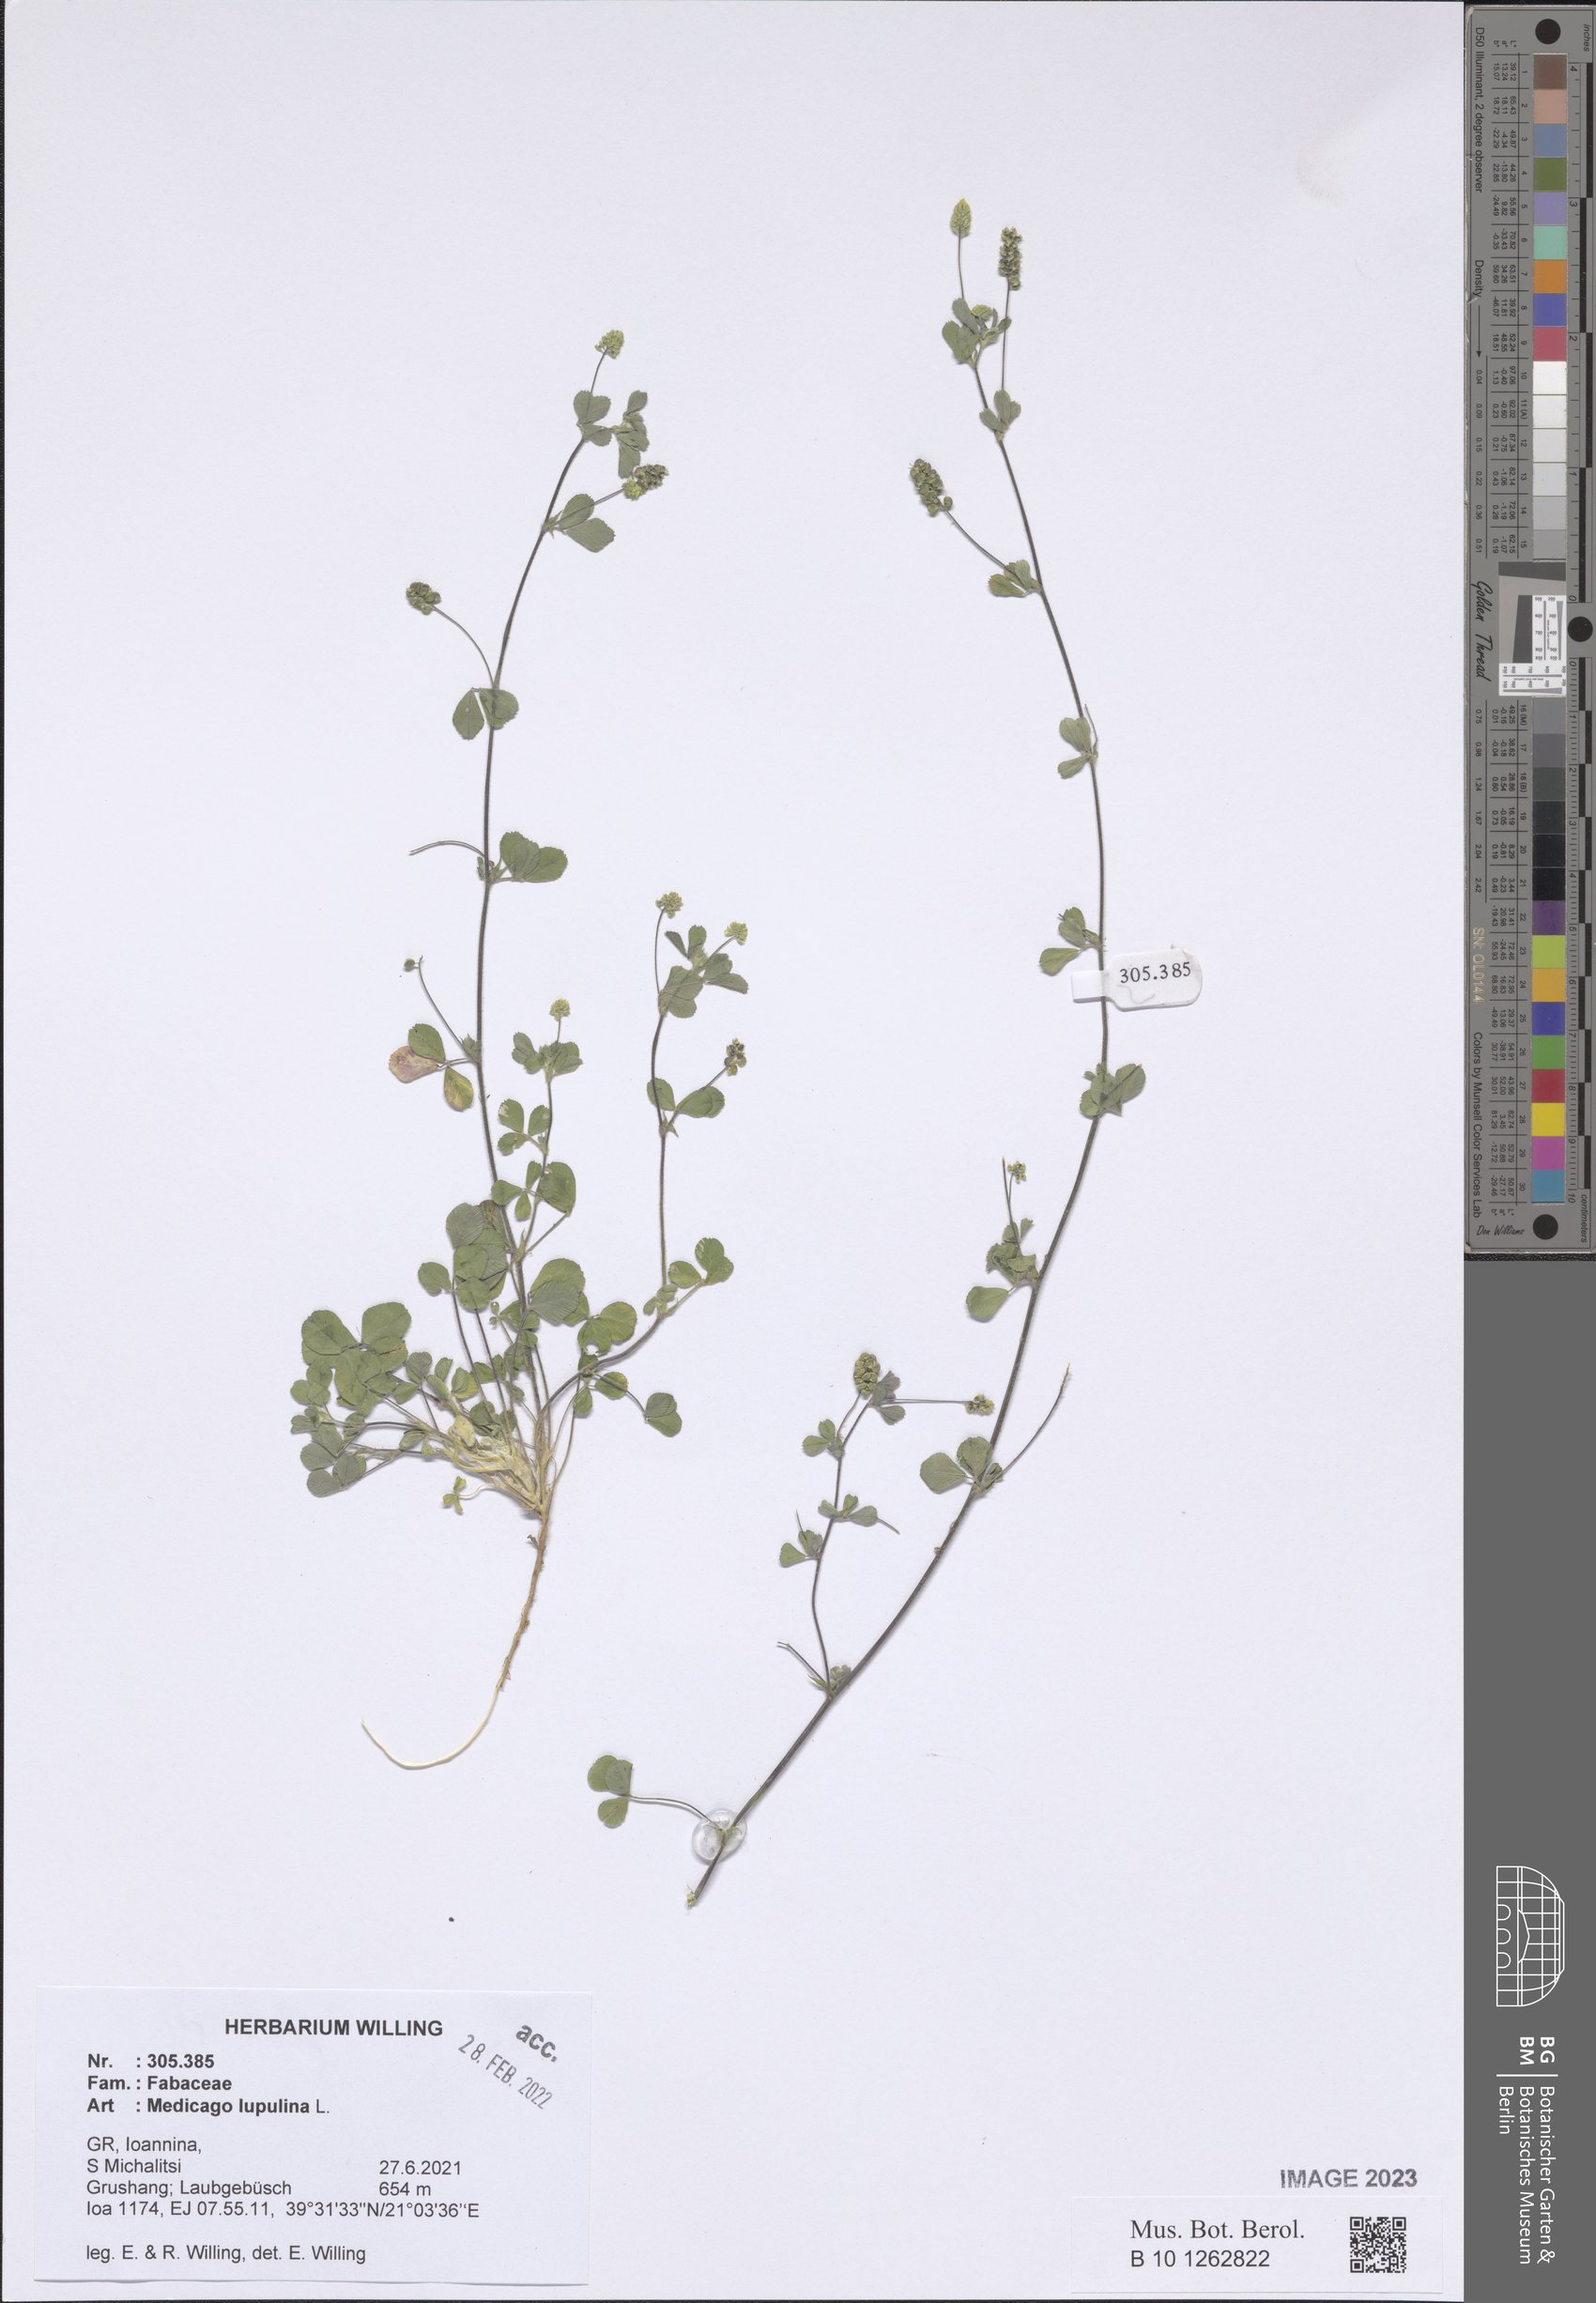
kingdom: Plantae
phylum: Tracheophyta
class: Magnoliopsida
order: Fabales
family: Fabaceae
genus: Medicago
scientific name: Medicago lupulina
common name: Black medick
